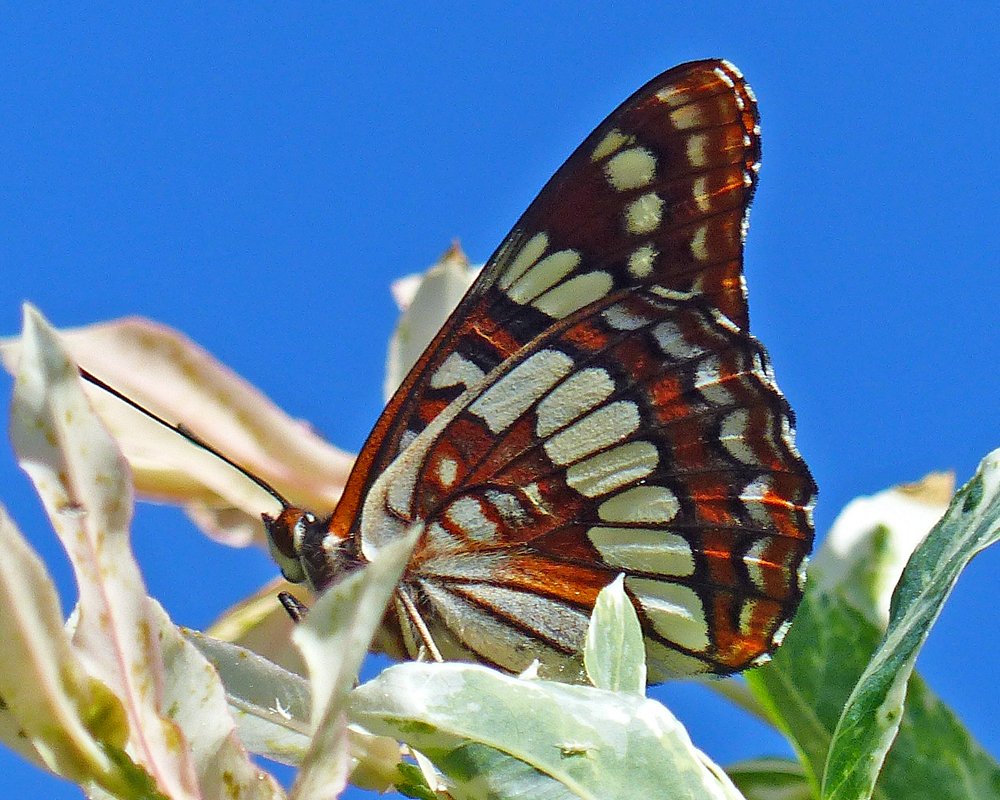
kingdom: Animalia
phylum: Arthropoda
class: Insecta
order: Lepidoptera
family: Nymphalidae
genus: Limenitis
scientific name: Limenitis lorquini
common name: Lorquin's Admiral
